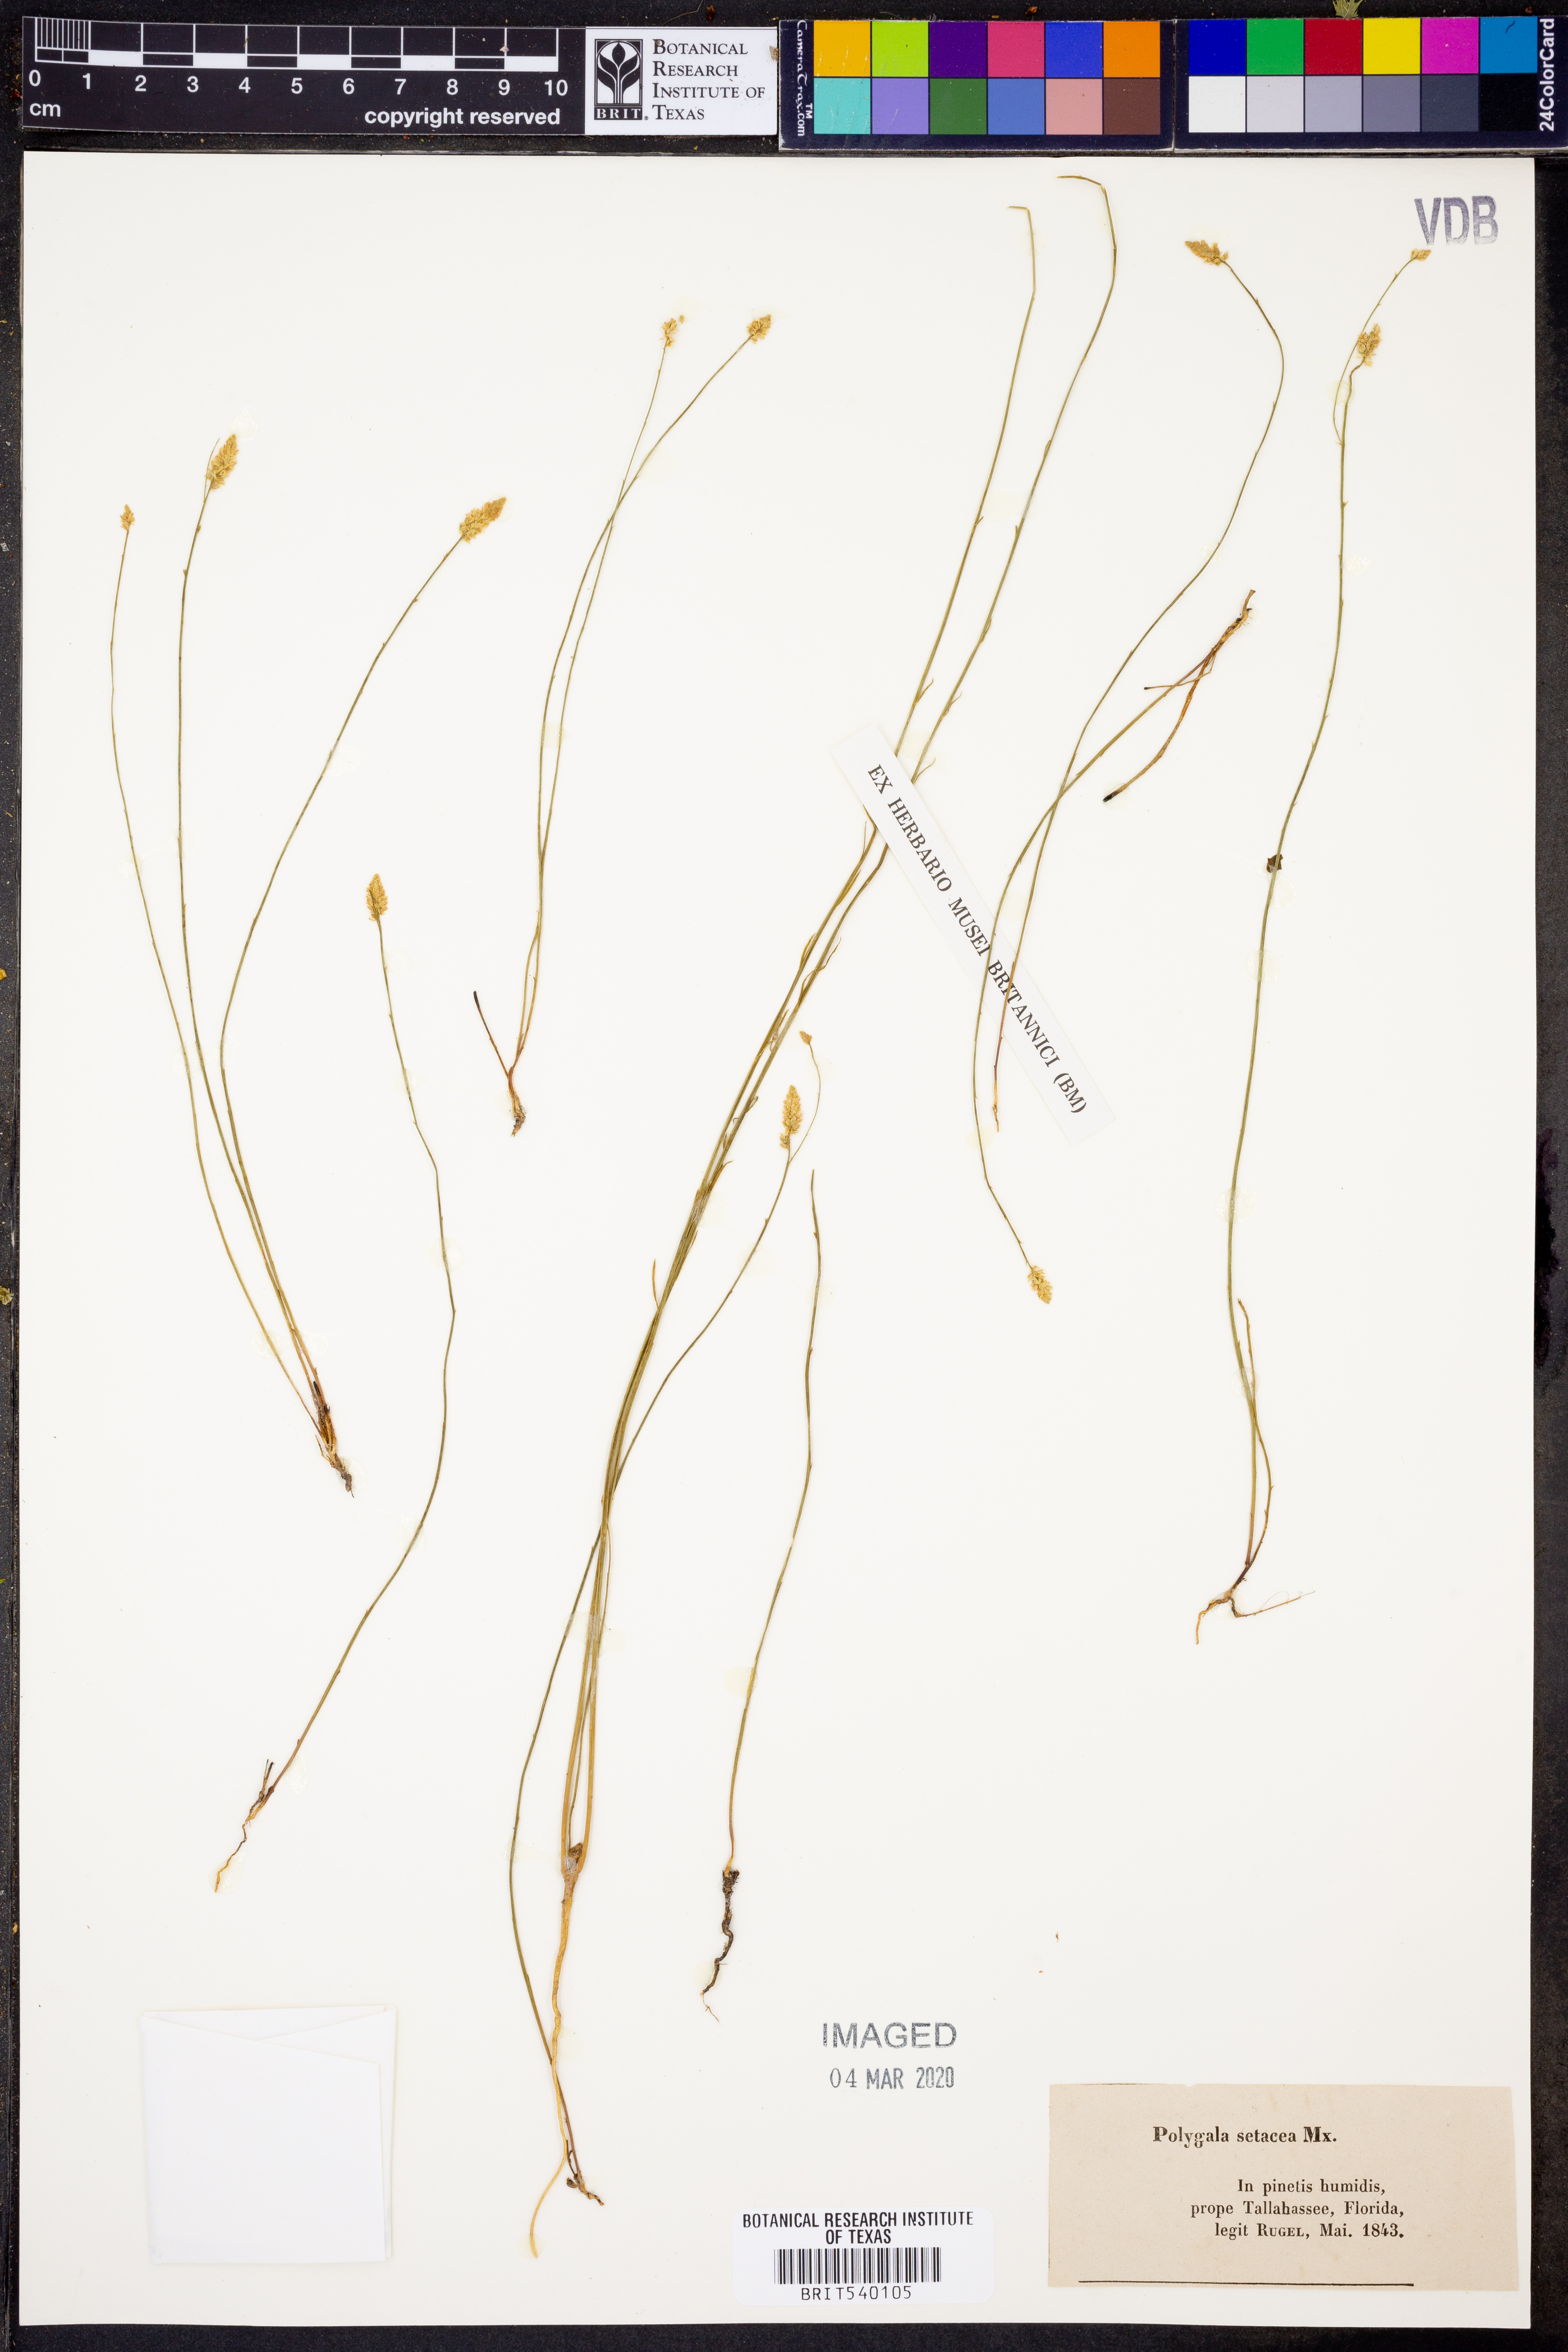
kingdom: Plantae
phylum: Tracheophyta
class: Magnoliopsida
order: Fabales
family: Polygalaceae
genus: Polygala
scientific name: Polygala setacea
